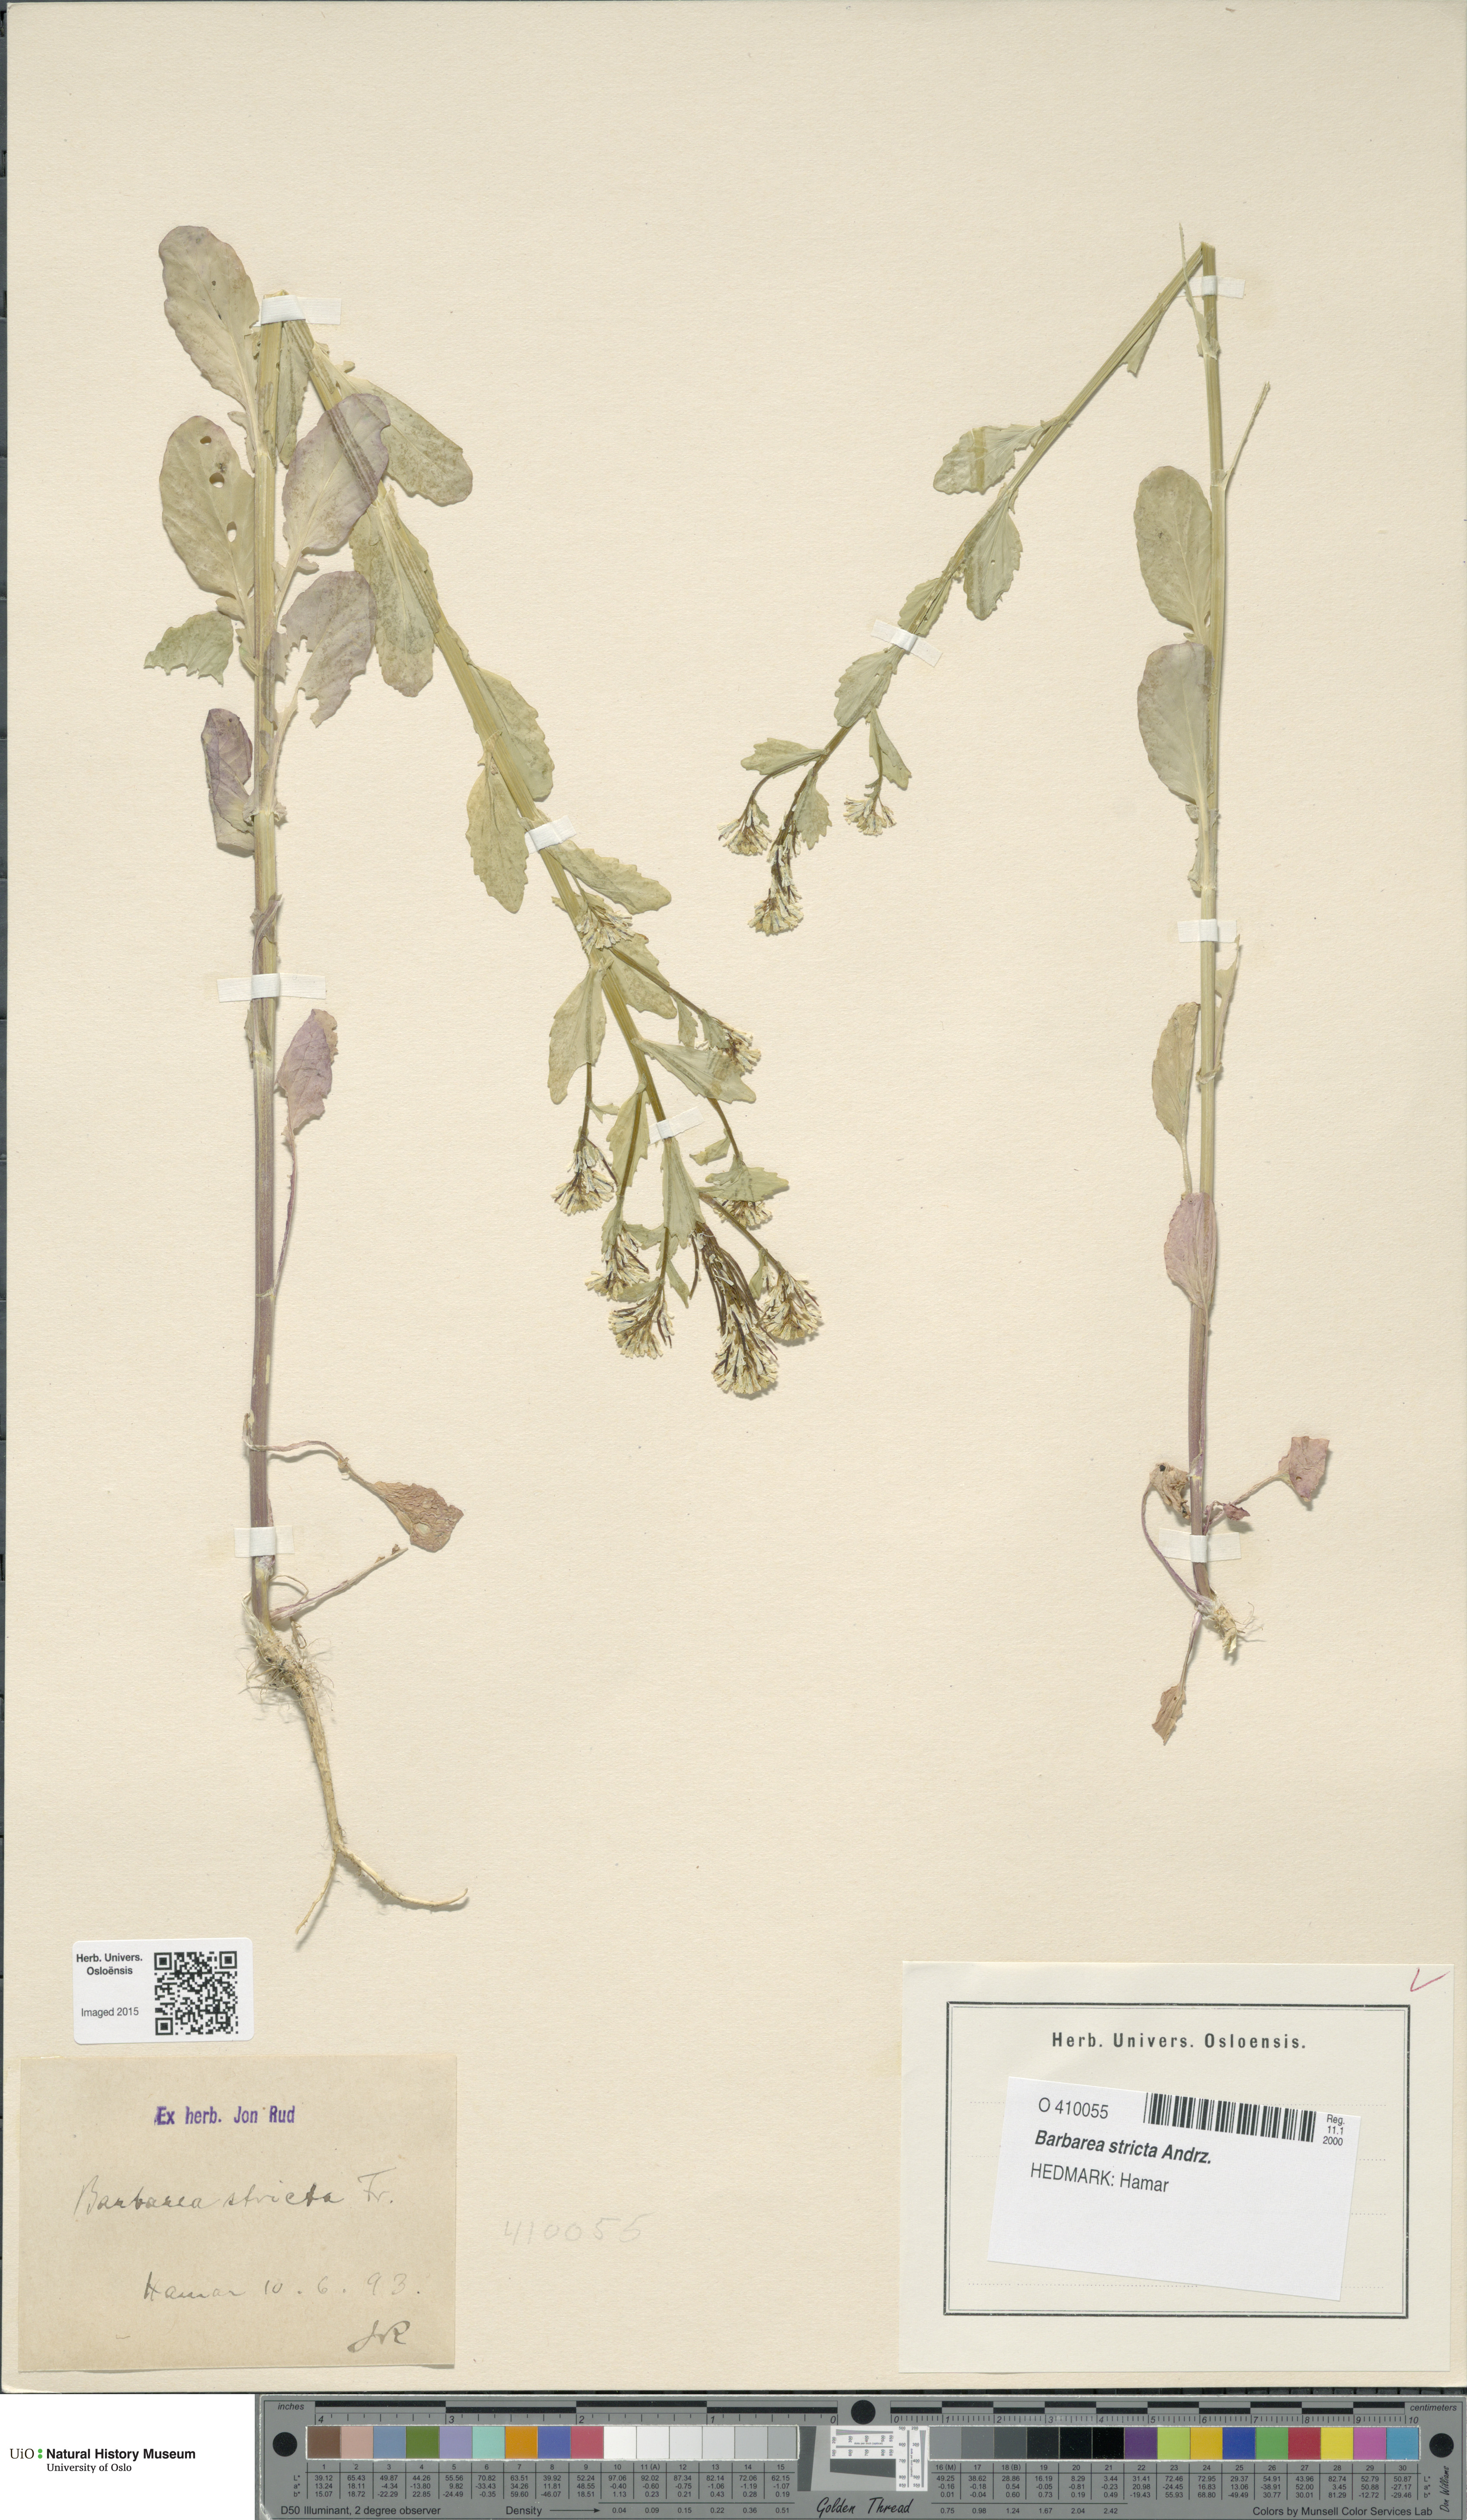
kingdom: Plantae
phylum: Tracheophyta
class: Magnoliopsida
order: Brassicales
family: Brassicaceae
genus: Barbarea
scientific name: Barbarea stricta
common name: Small-flowered winter-cress
